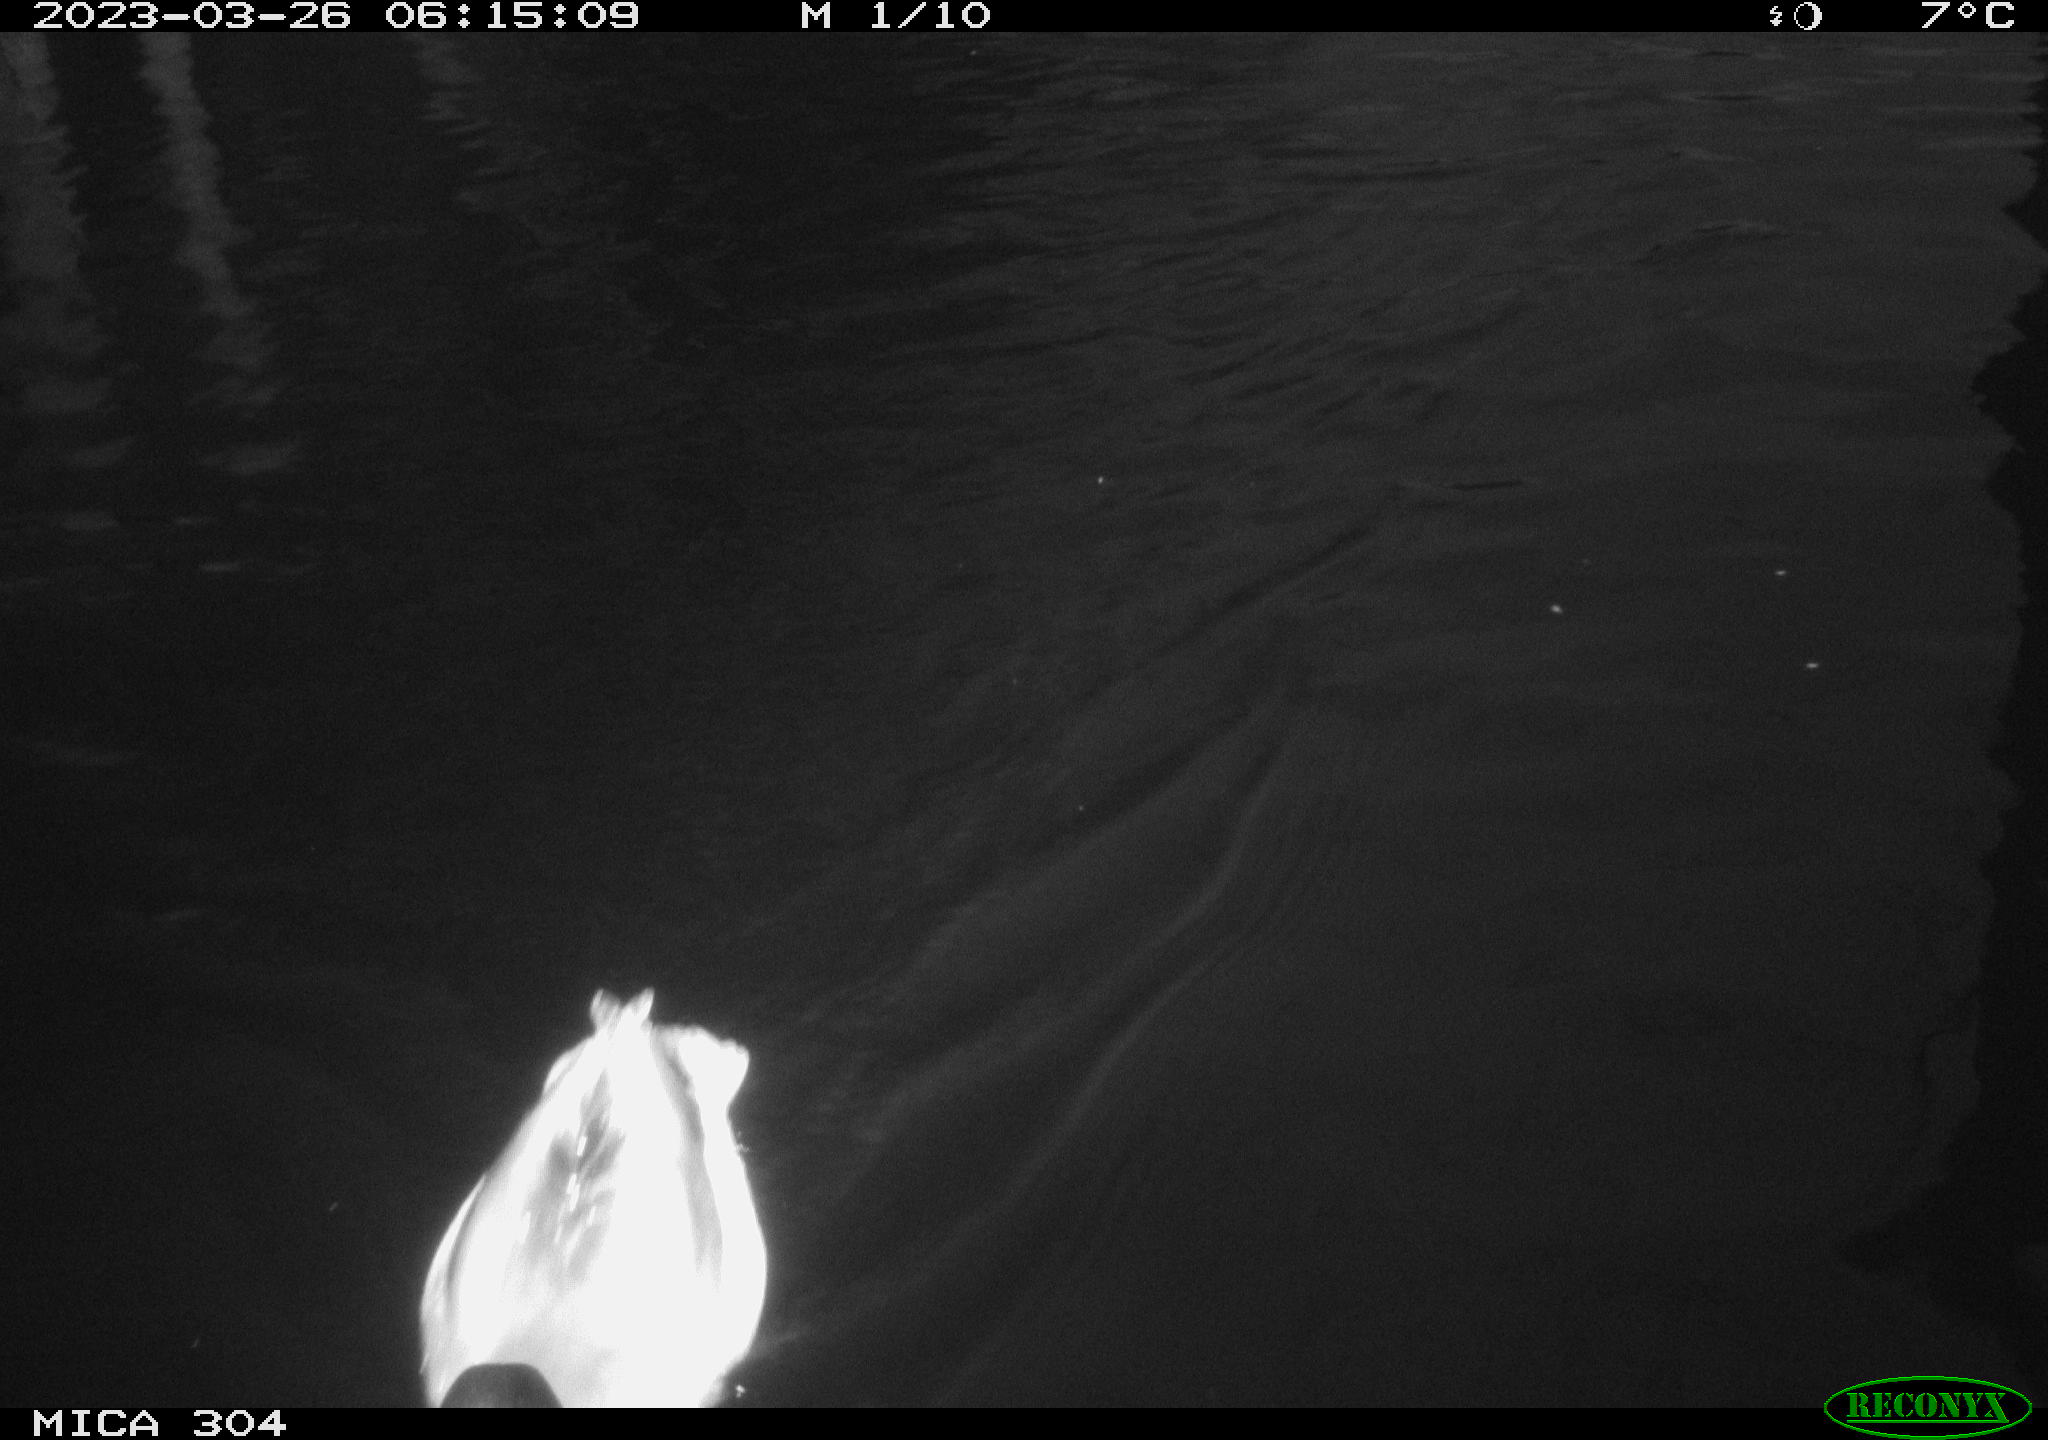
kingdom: Animalia
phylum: Chordata
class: Aves
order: Anseriformes
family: Anatidae
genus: Anas
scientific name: Anas
